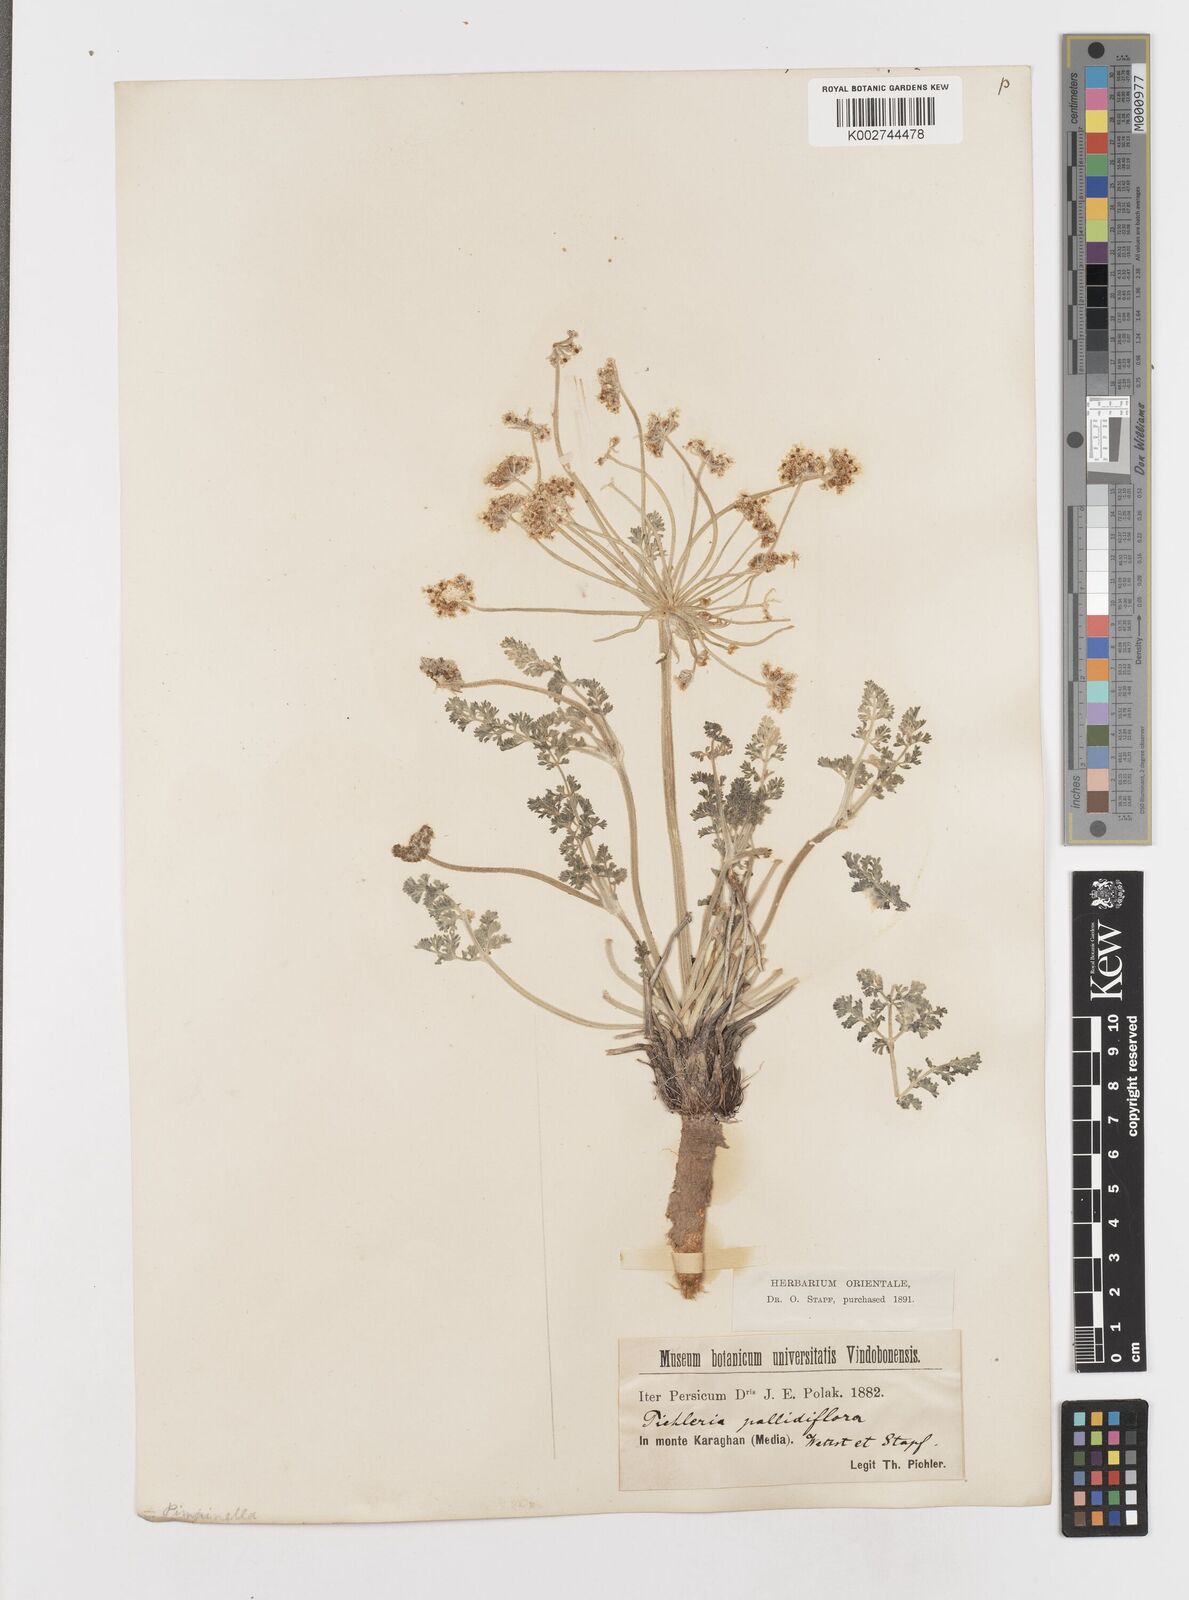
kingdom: Plantae
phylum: Tracheophyta
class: Magnoliopsida
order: Apiales
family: Apiaceae
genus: Zosima
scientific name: Zosima absinthiifolia
